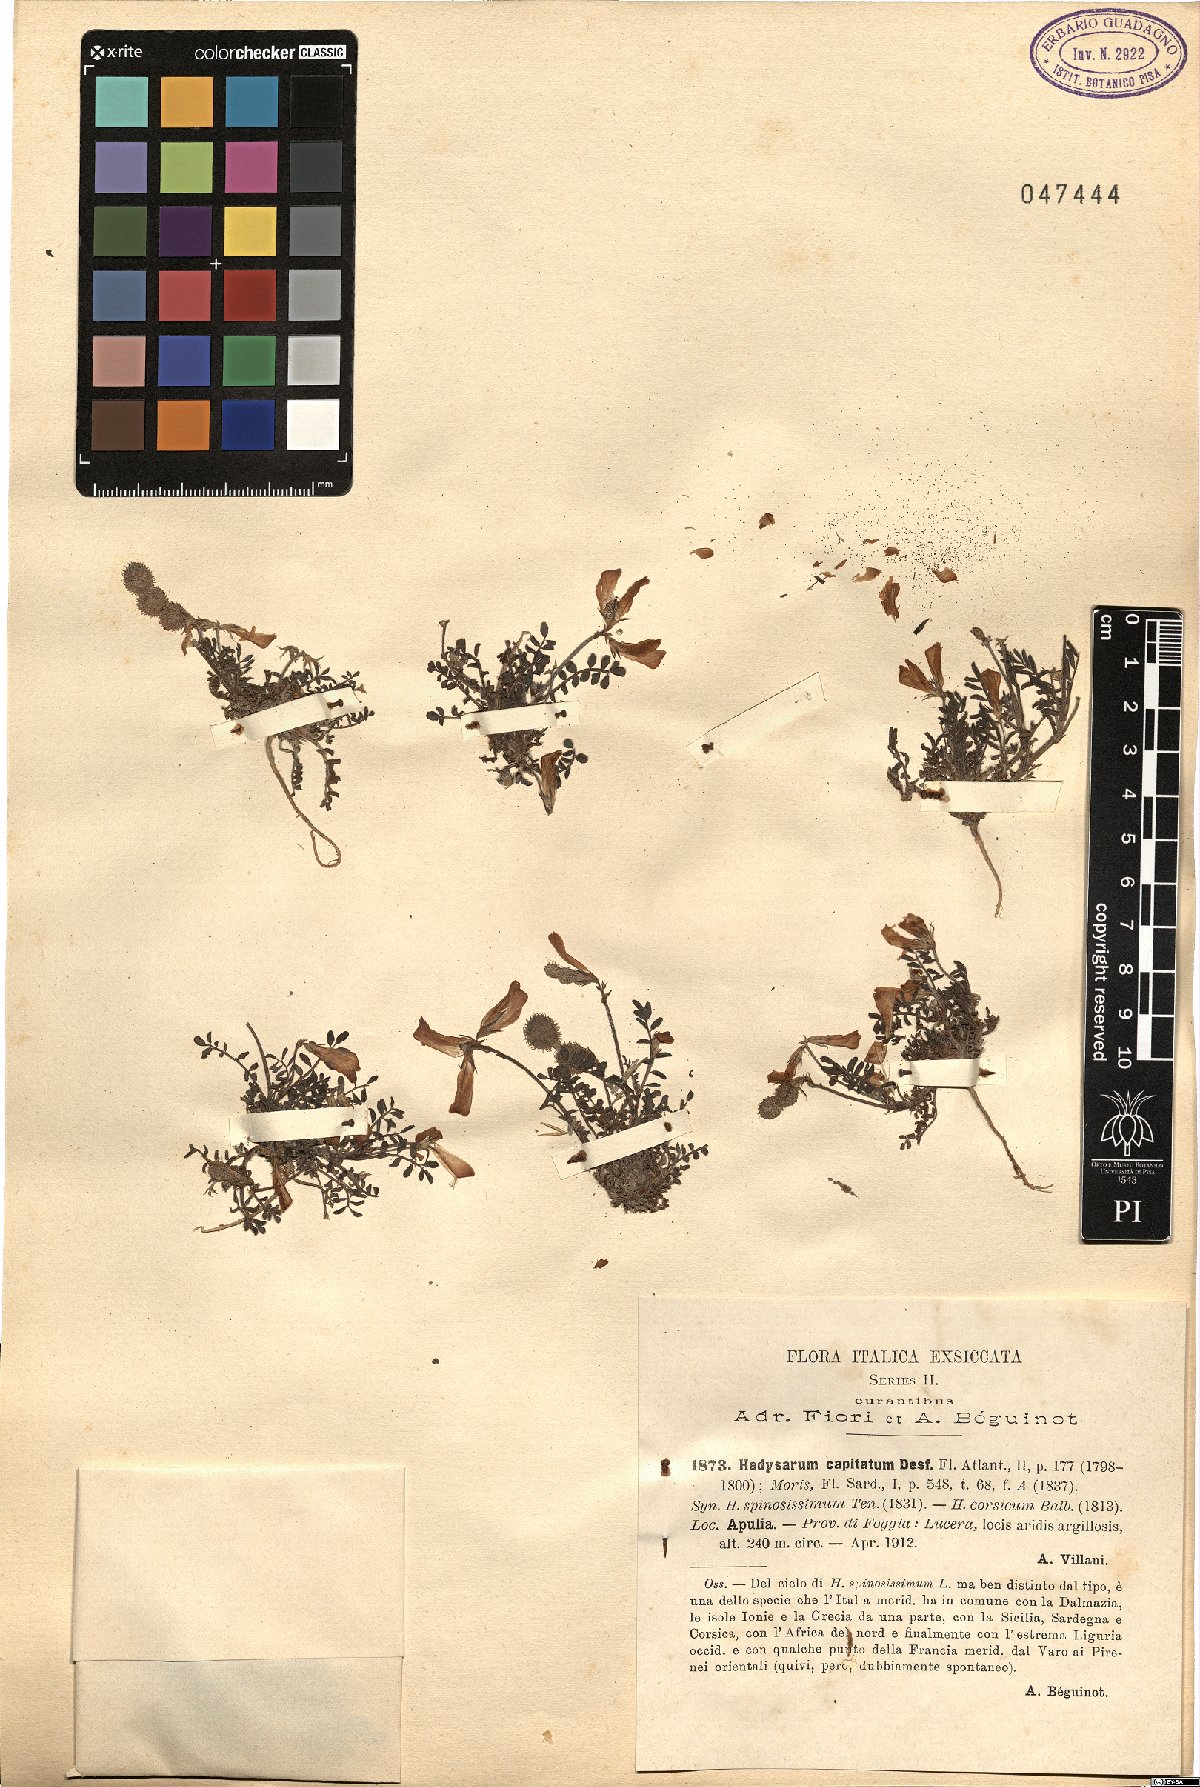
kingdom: Plantae
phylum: Tracheophyta
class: Magnoliopsida
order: Fabales
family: Fabaceae
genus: Sulla
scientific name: Sulla glomerata
